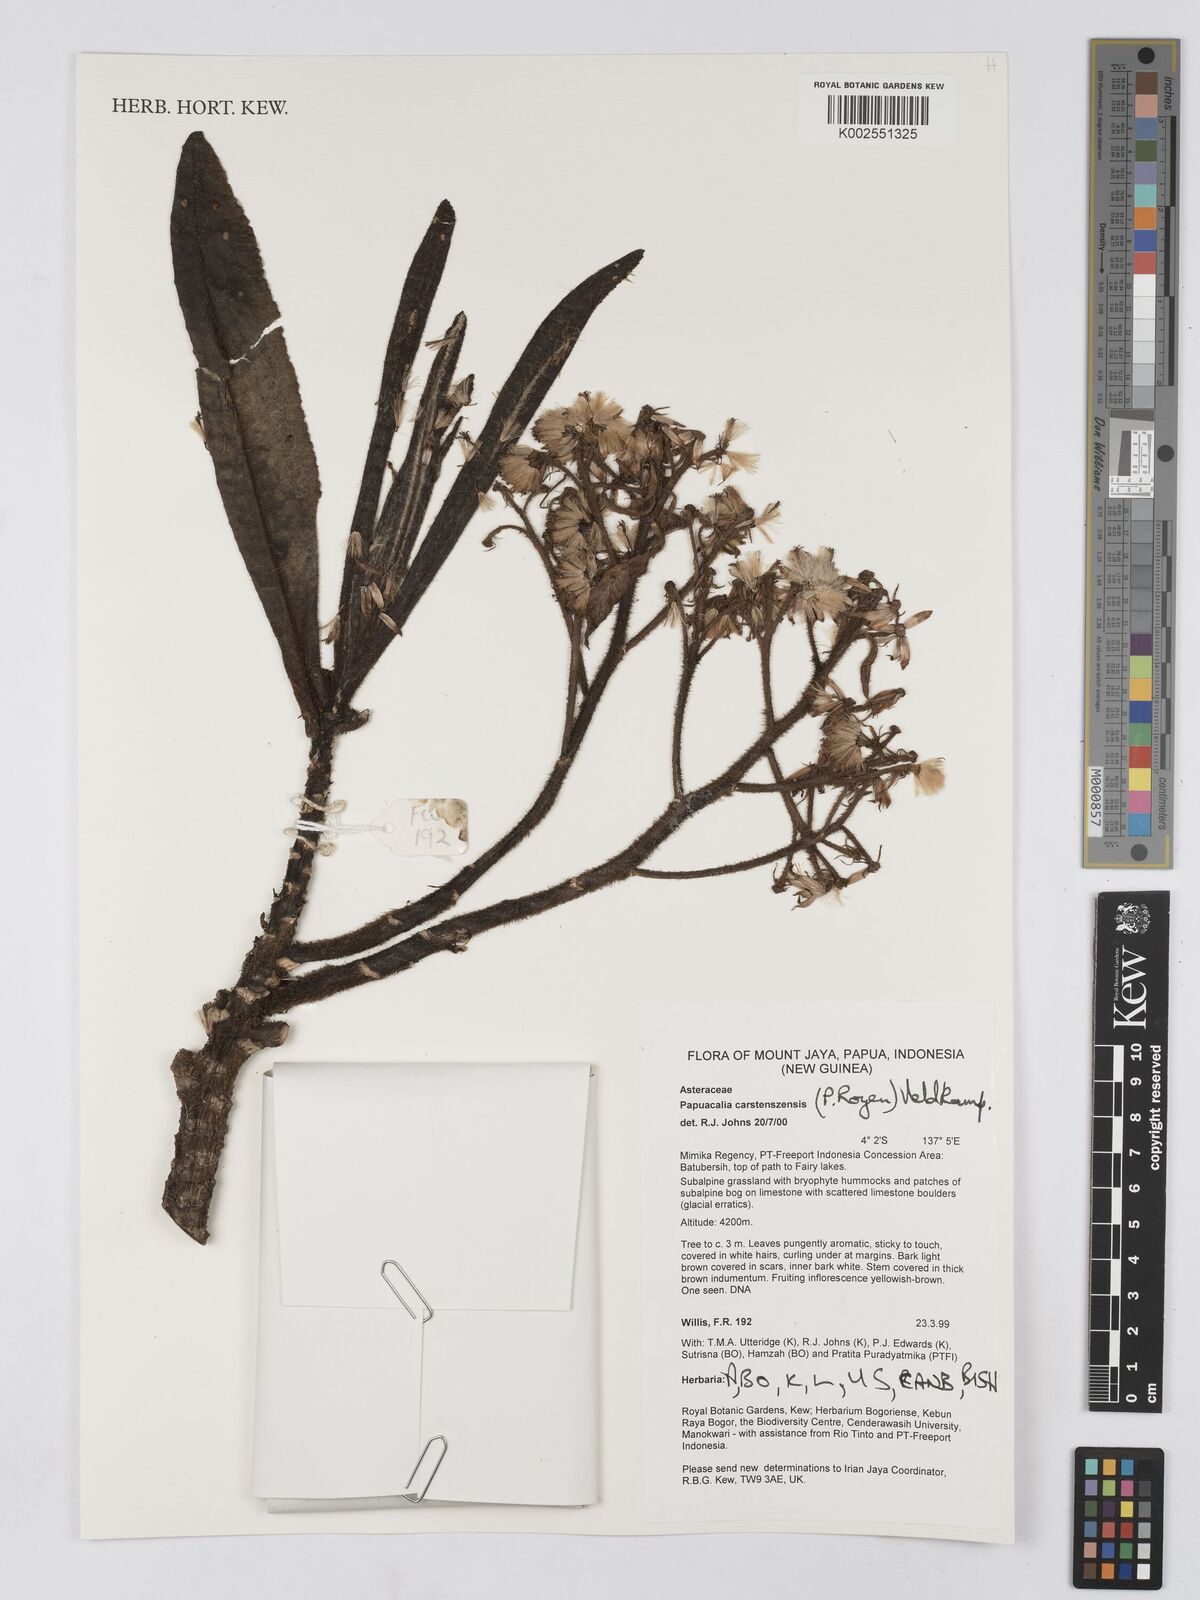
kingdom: Plantae
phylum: Tracheophyta
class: Magnoliopsida
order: Asterales
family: Asteraceae
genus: Papuacalia
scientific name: Papuacalia carstenszensis
